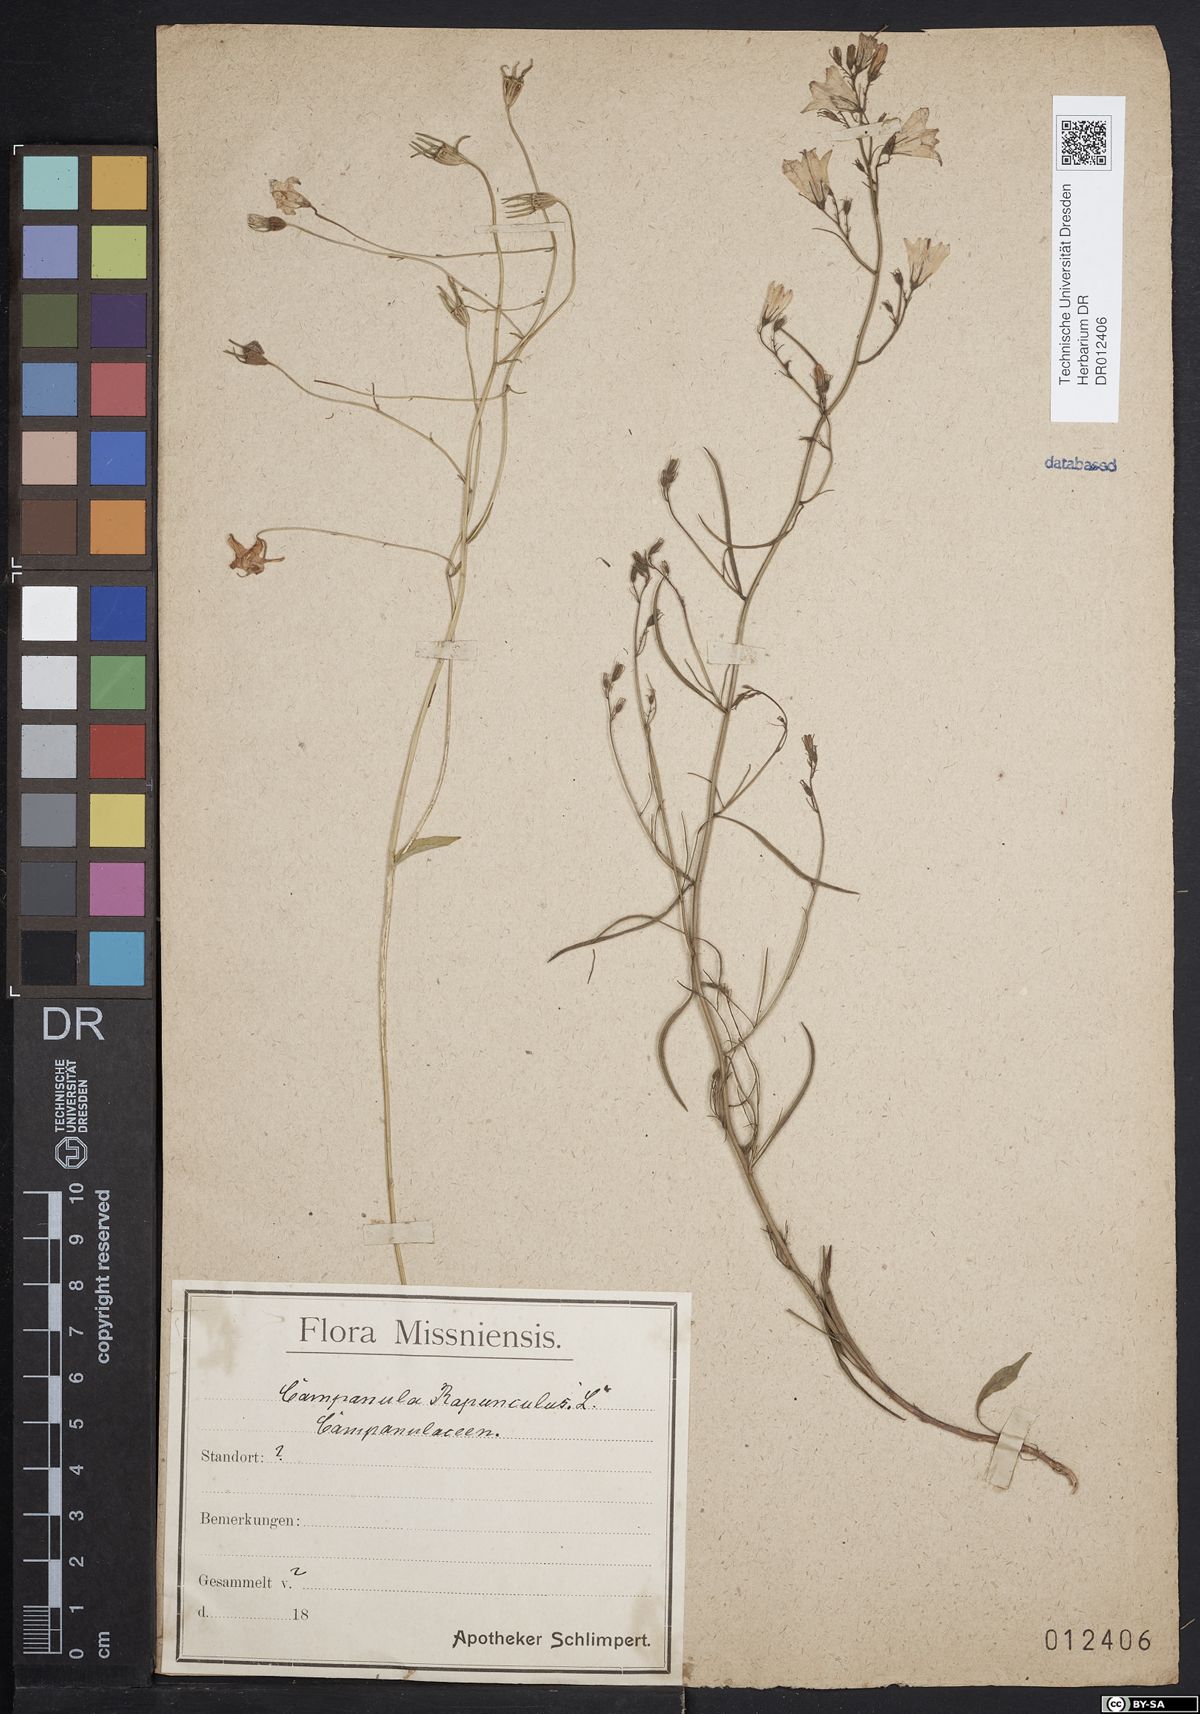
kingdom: Plantae
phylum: Tracheophyta
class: Magnoliopsida
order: Asterales
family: Campanulaceae
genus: Campanula
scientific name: Campanula rapunculoides
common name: Creeping bellflower
